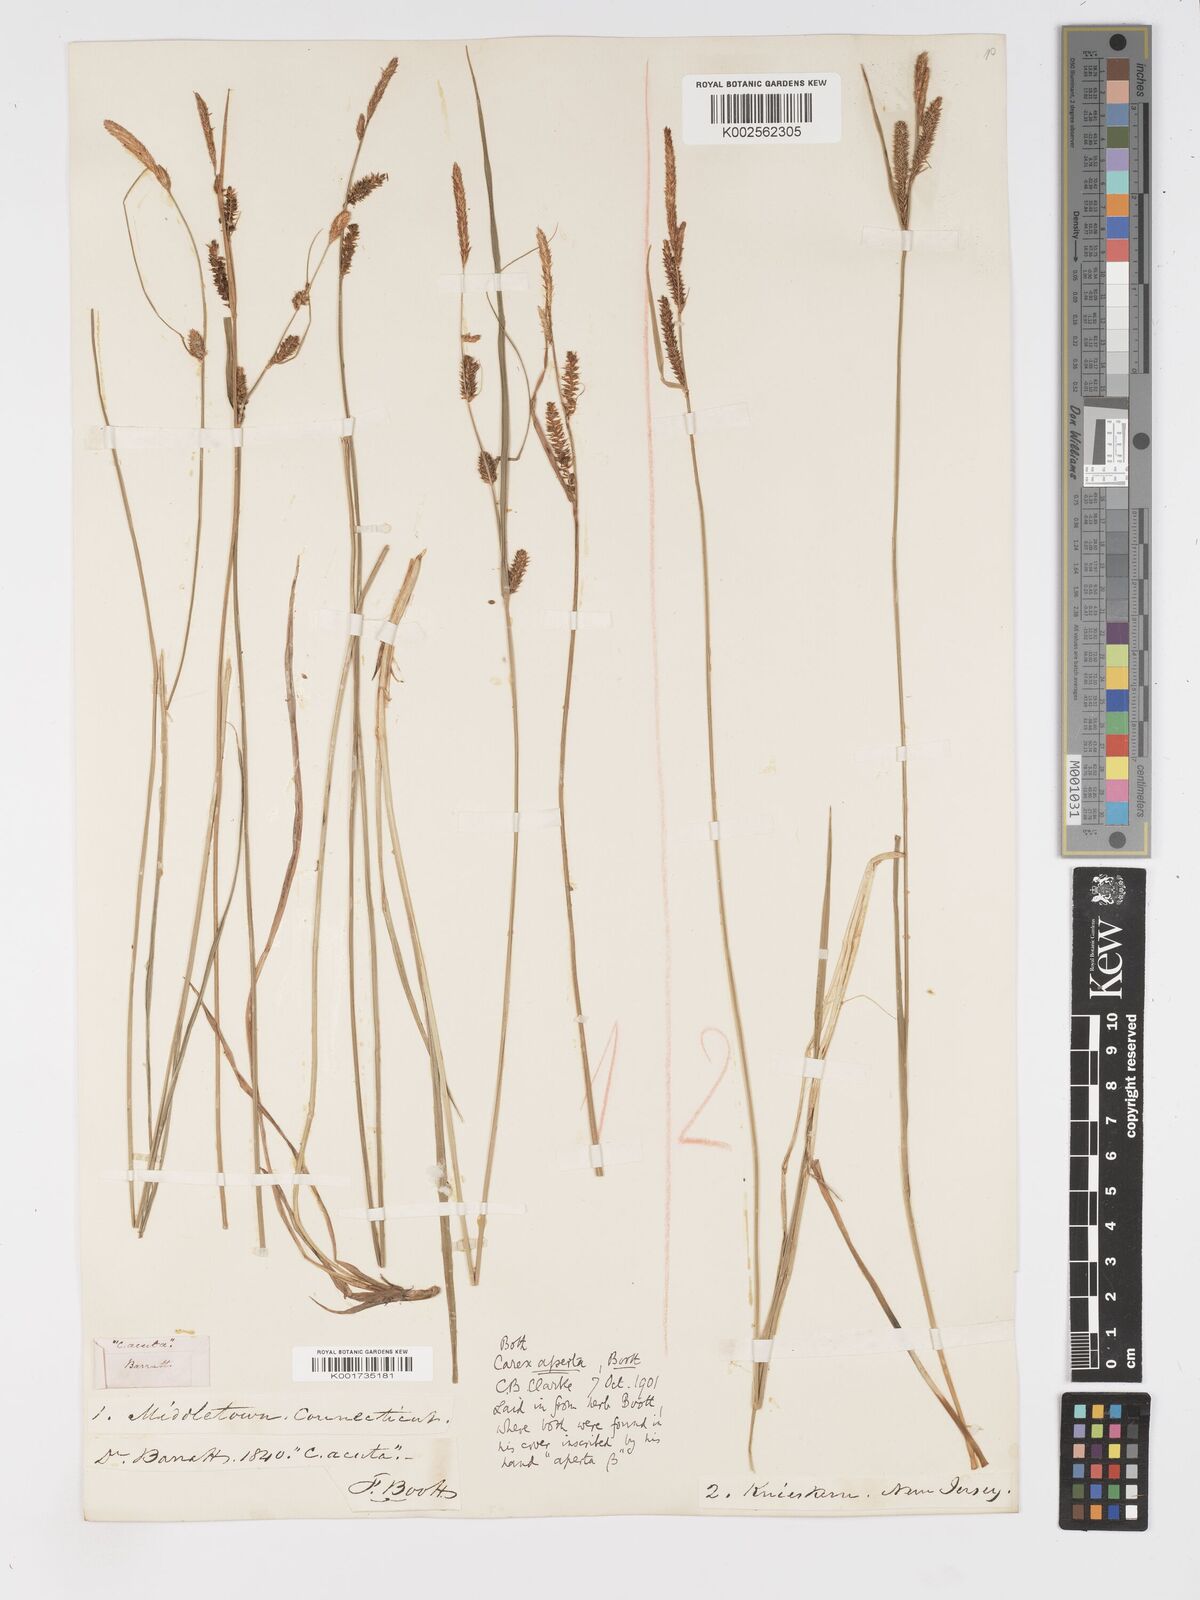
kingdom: Plantae
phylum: Tracheophyta
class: Liliopsida
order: Poales
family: Cyperaceae
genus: Carex
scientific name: Carex aperta
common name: Columbia sedge
